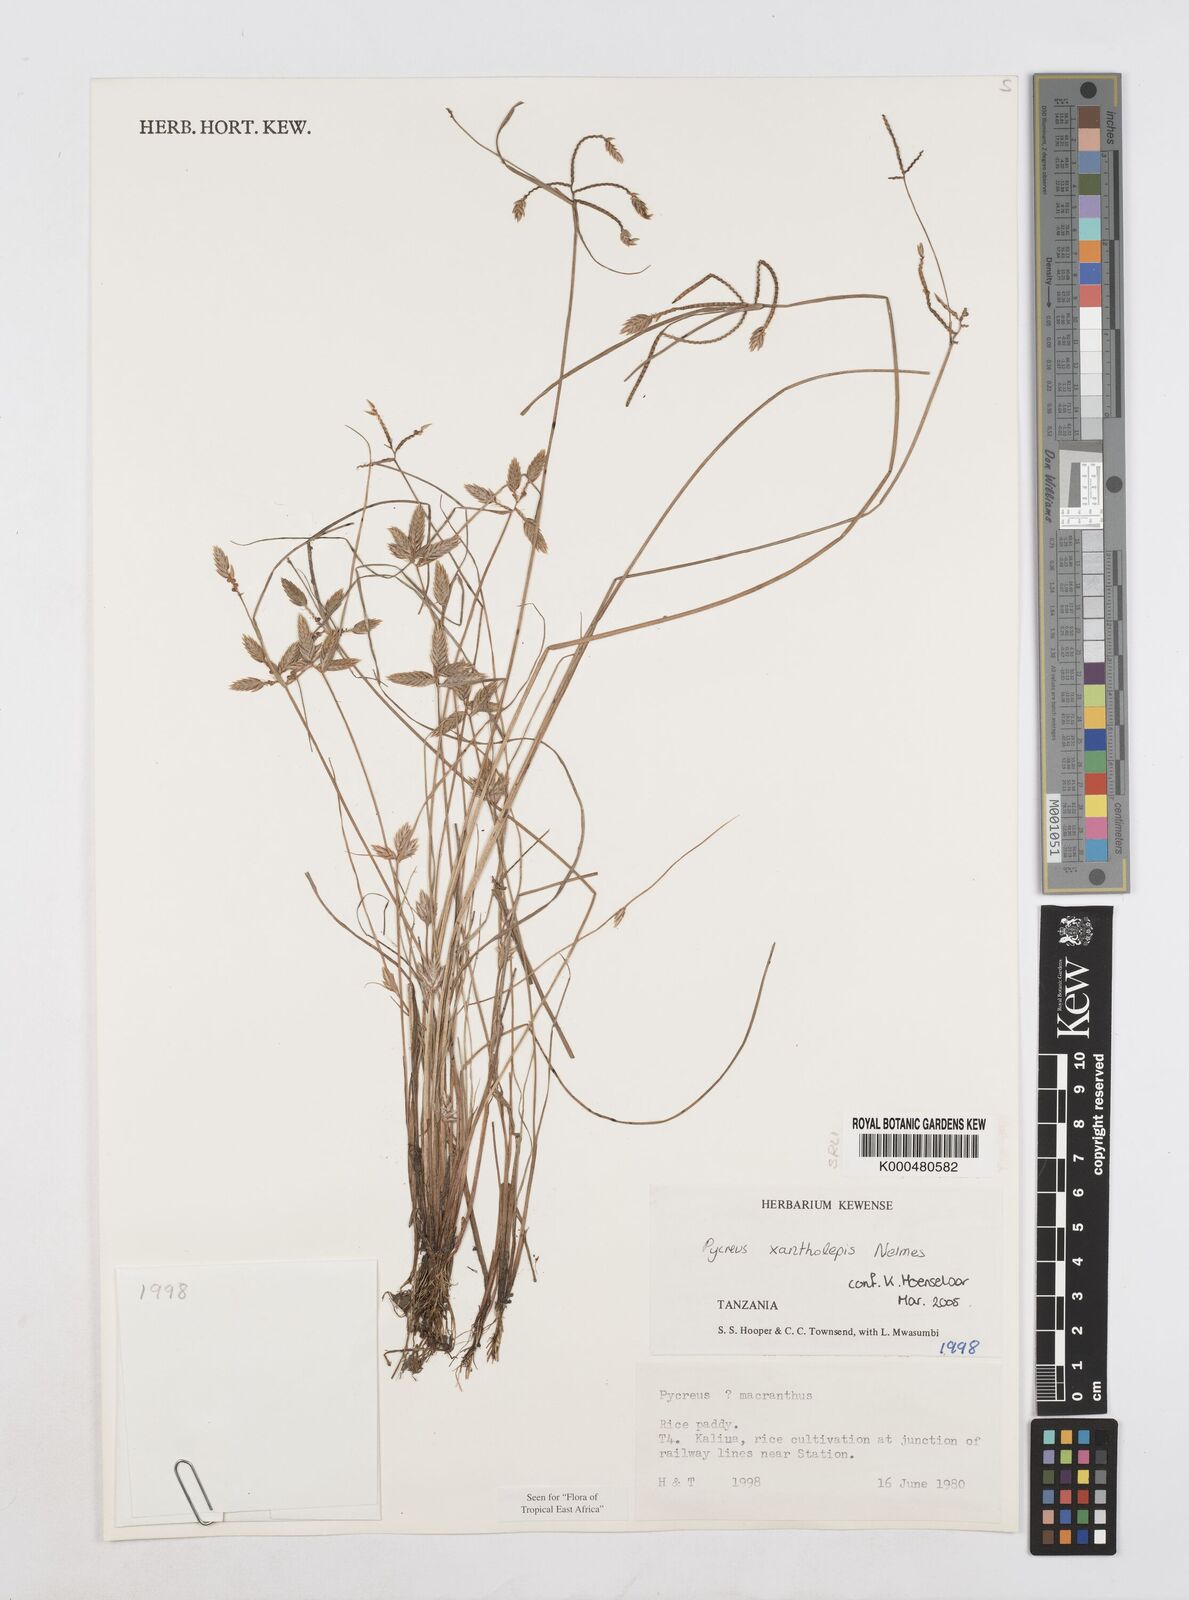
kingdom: Plantae
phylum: Tracheophyta
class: Liliopsida
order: Poales
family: Cyperaceae
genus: Cyperus
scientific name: Cyperus xantholepis
